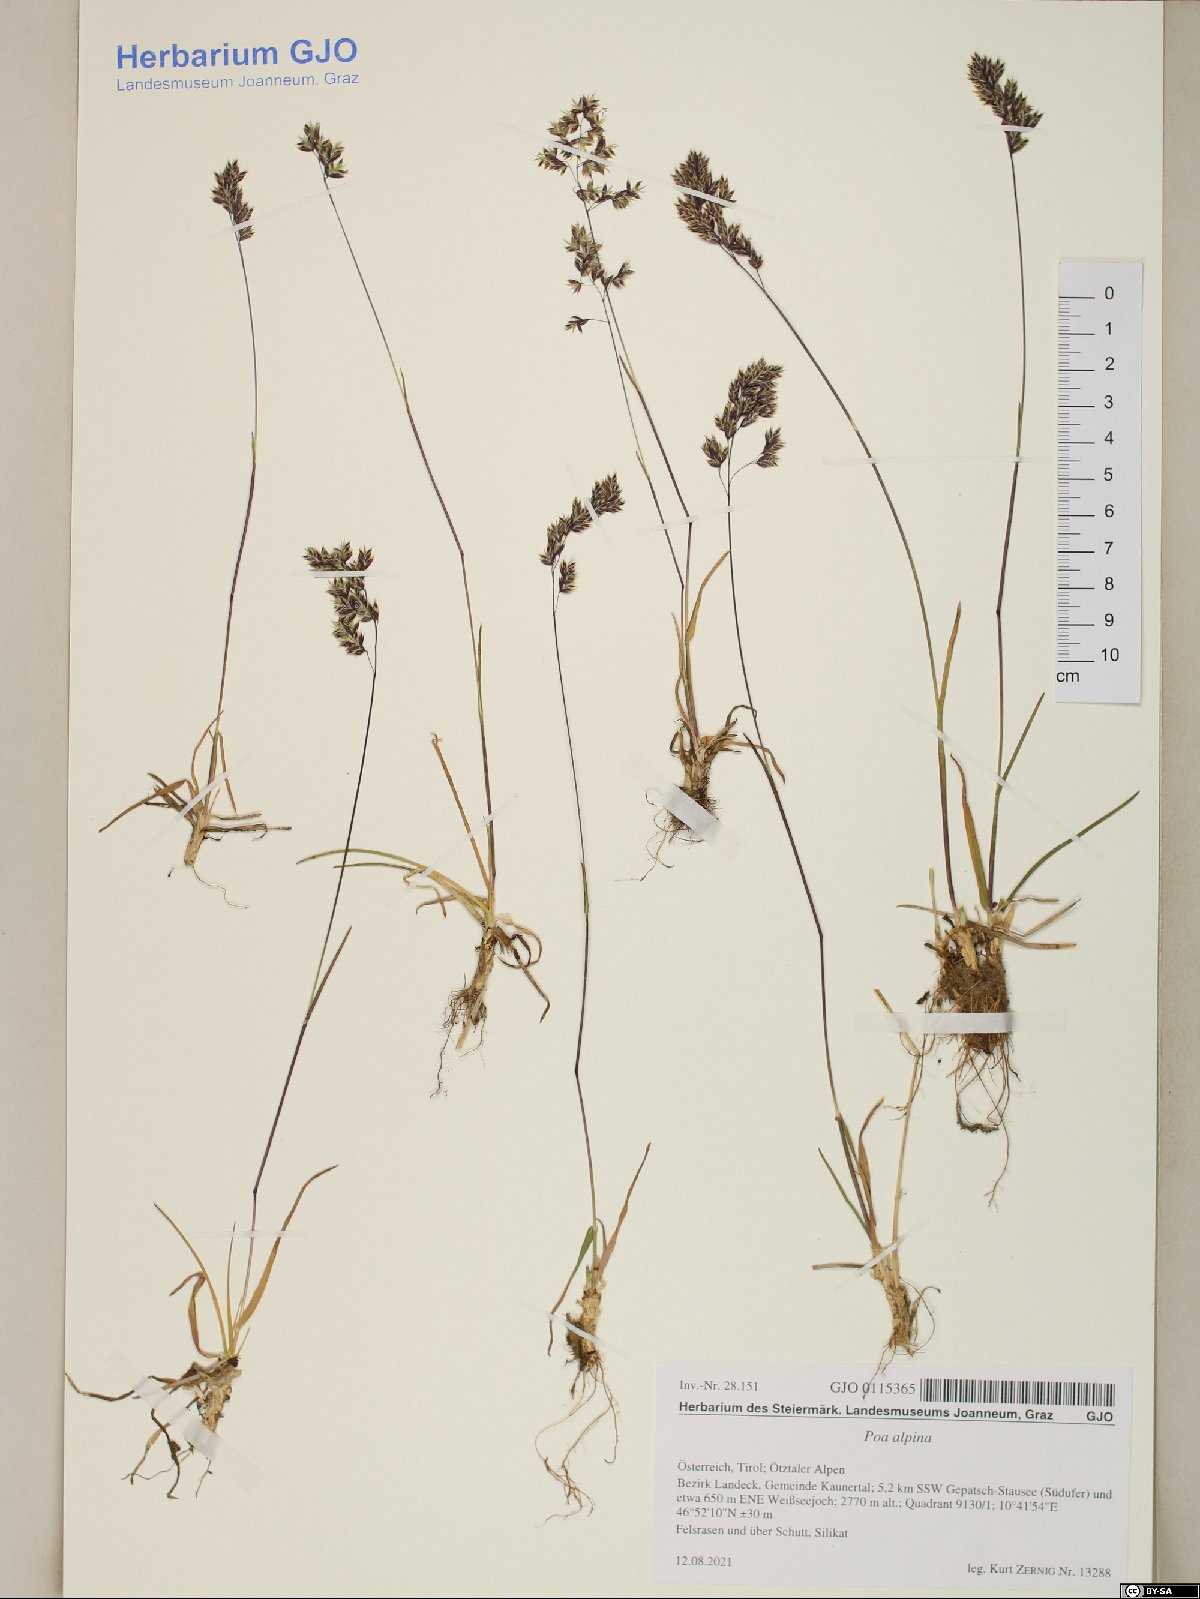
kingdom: Plantae
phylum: Tracheophyta
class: Liliopsida
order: Poales
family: Poaceae
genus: Poa
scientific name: Poa alpina
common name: Alpine bluegrass
